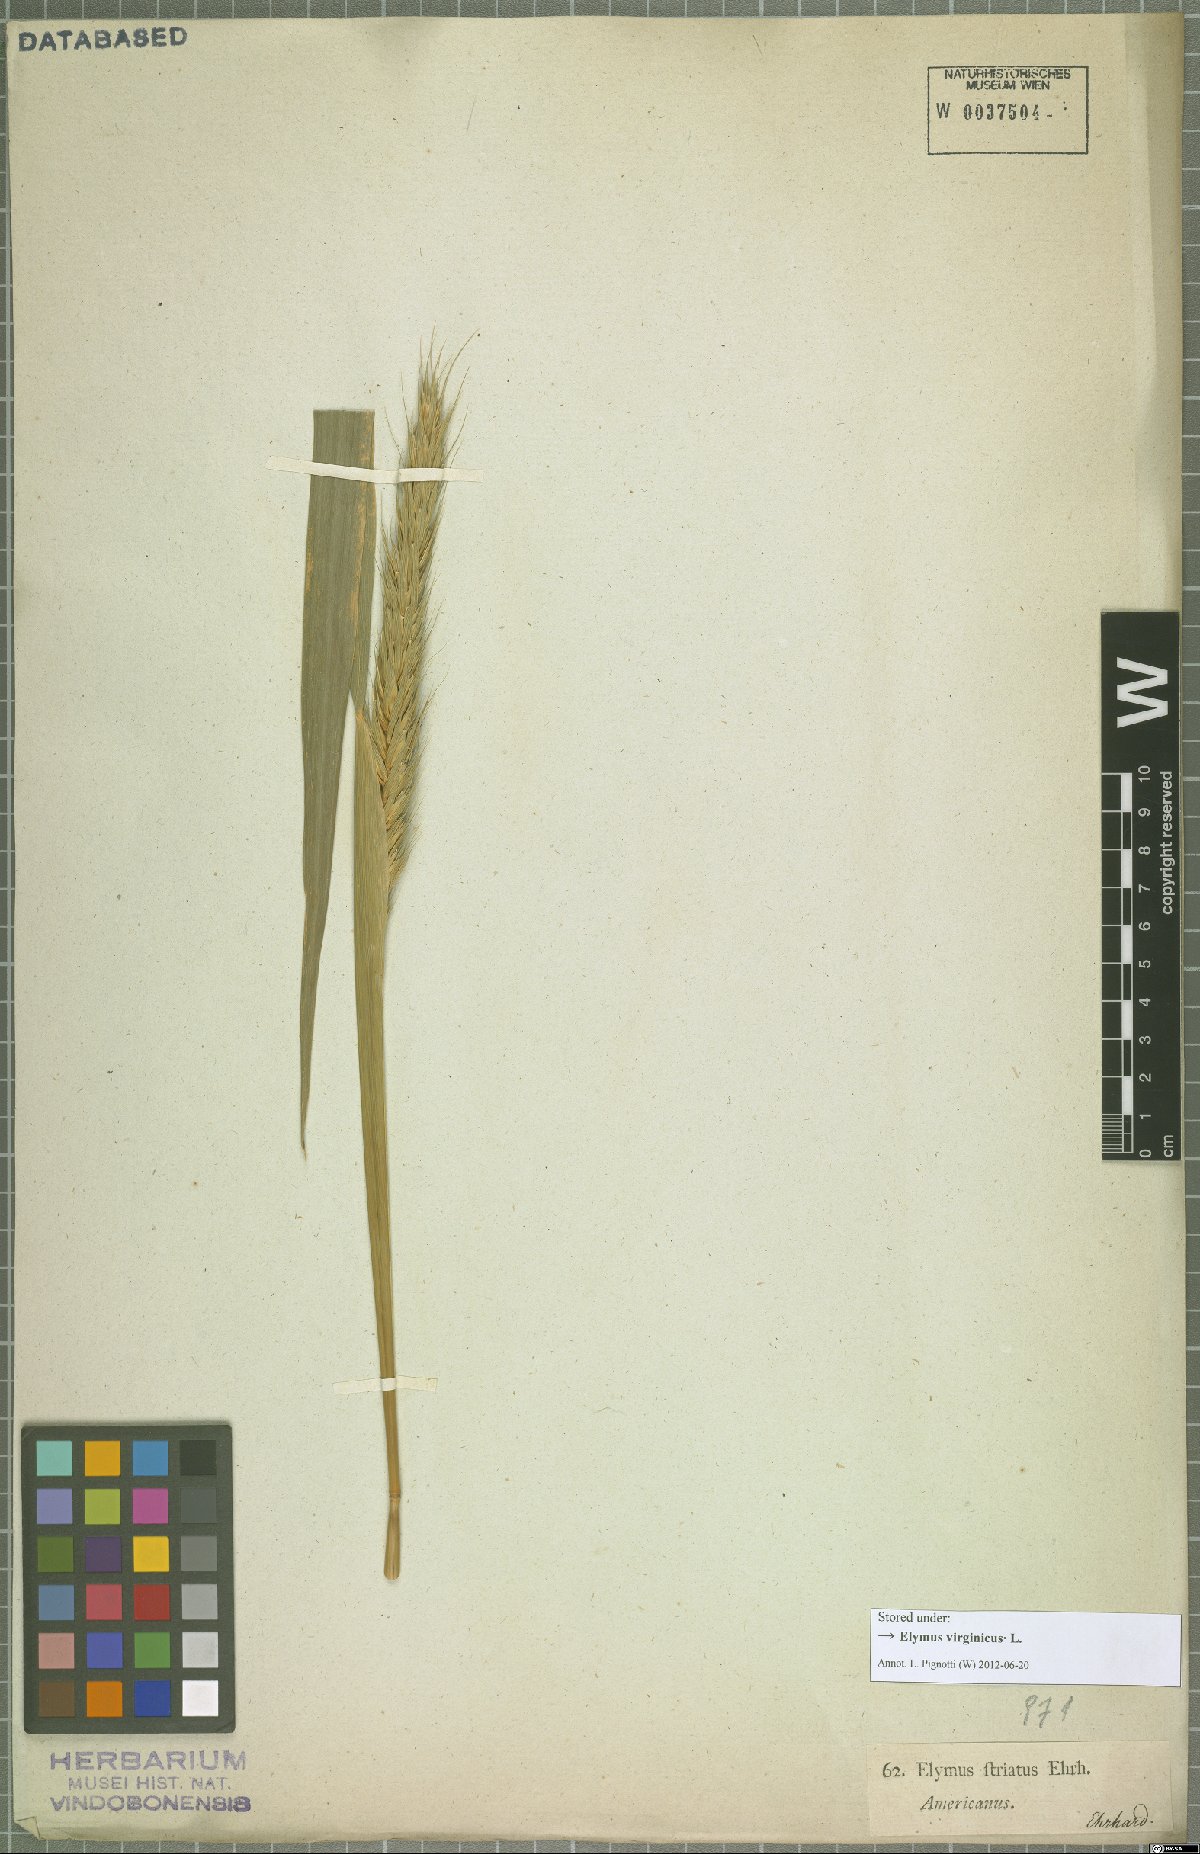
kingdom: Plantae
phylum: Tracheophyta
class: Liliopsida
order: Poales
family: Poaceae
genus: Elymus
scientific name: Elymus virginicus
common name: Common eastern wildrye
